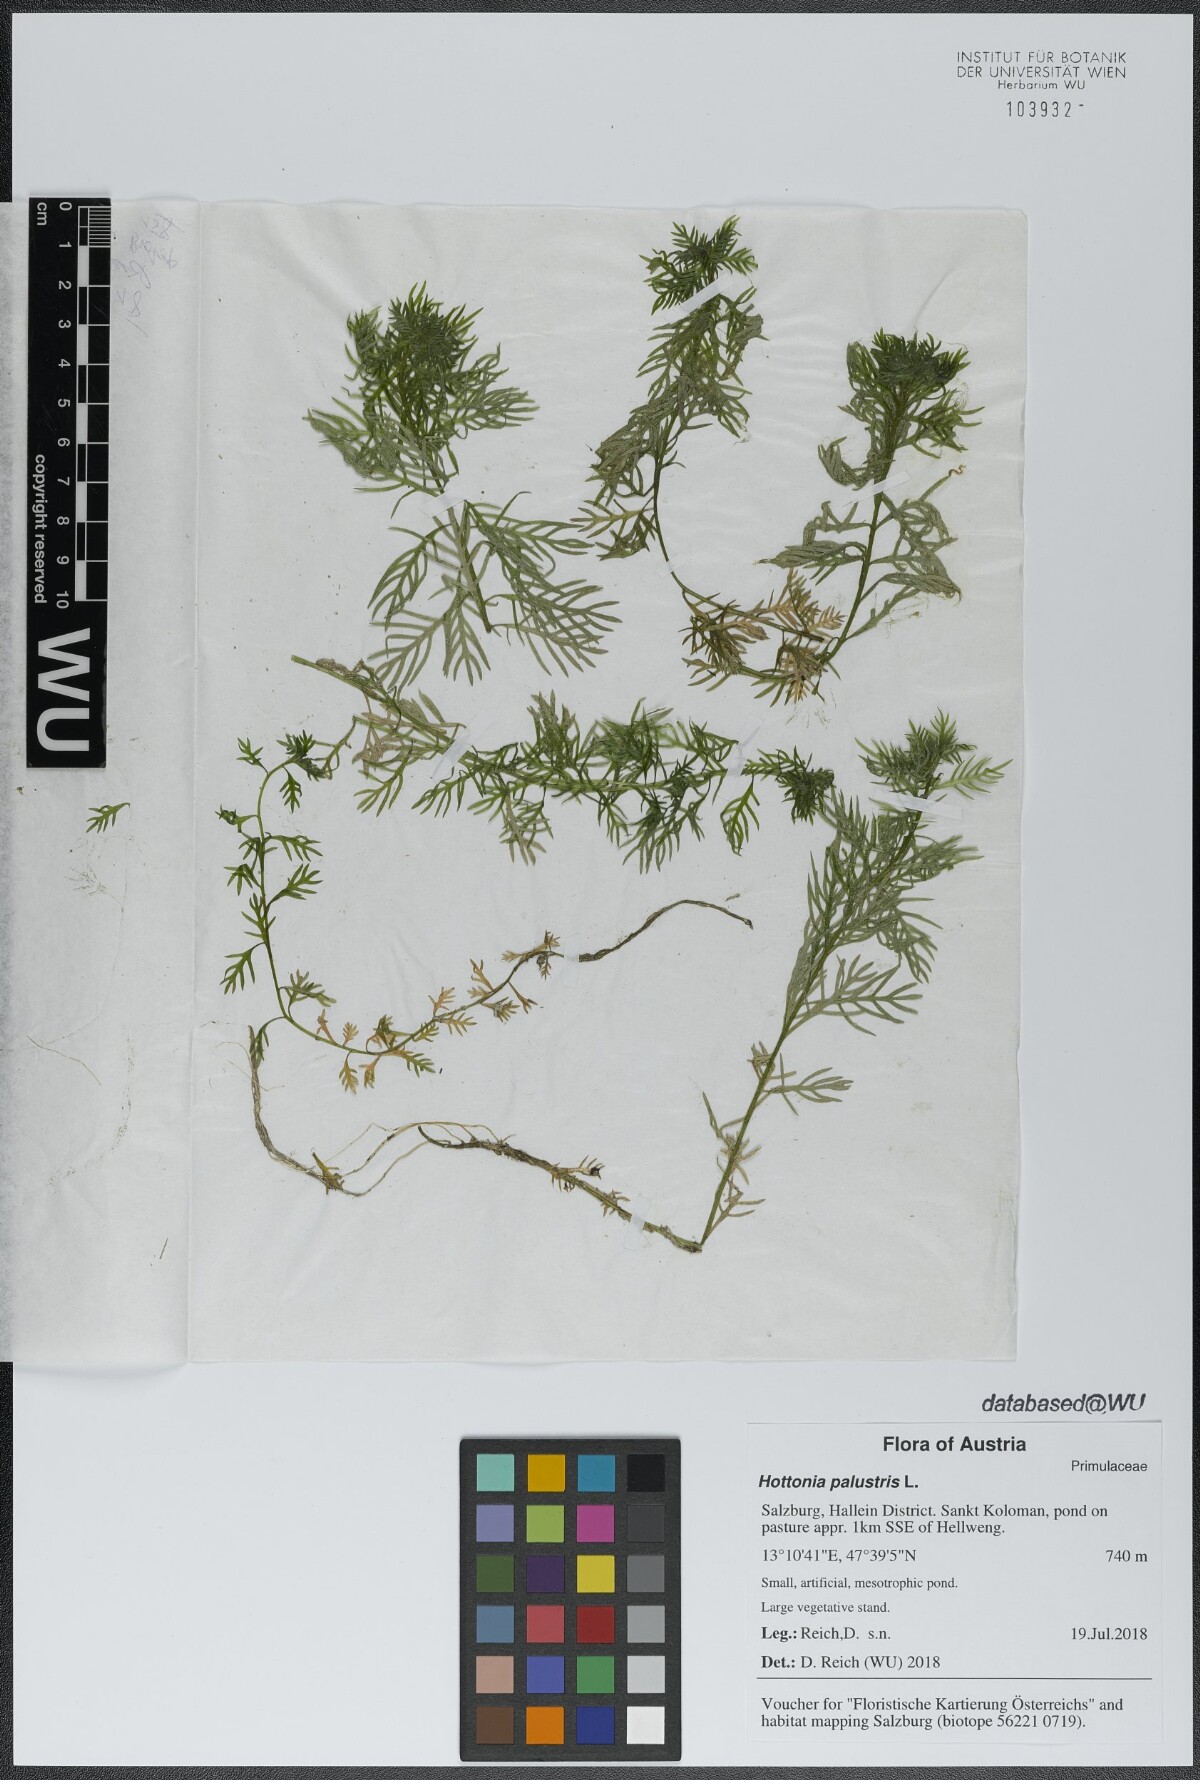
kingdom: Plantae
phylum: Tracheophyta
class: Magnoliopsida
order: Ericales
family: Primulaceae
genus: Hottonia
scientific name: Hottonia palustris
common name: Water-violet
